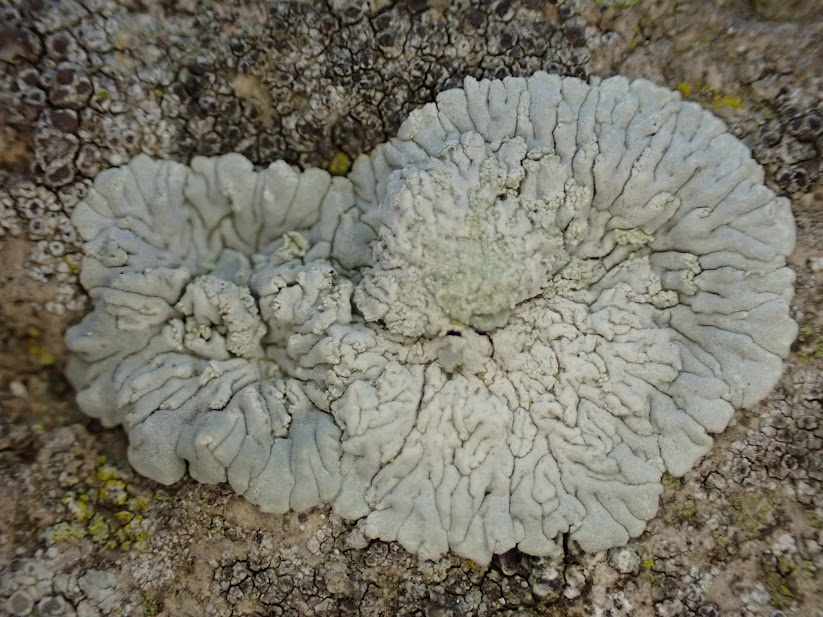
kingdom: Fungi
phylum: Ascomycota
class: Lecanoromycetes
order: Caliciales
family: Caliciaceae
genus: Diploicia
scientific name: Diploicia canescens
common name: grå støvrosetlav
